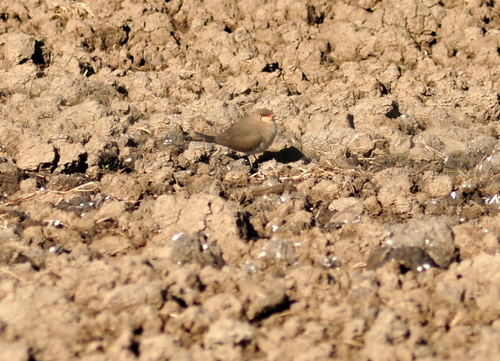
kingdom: Animalia
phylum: Chordata
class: Aves
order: Charadriiformes
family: Glareolidae
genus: Glareola
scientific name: Glareola pratincola
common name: Collared pratincole
